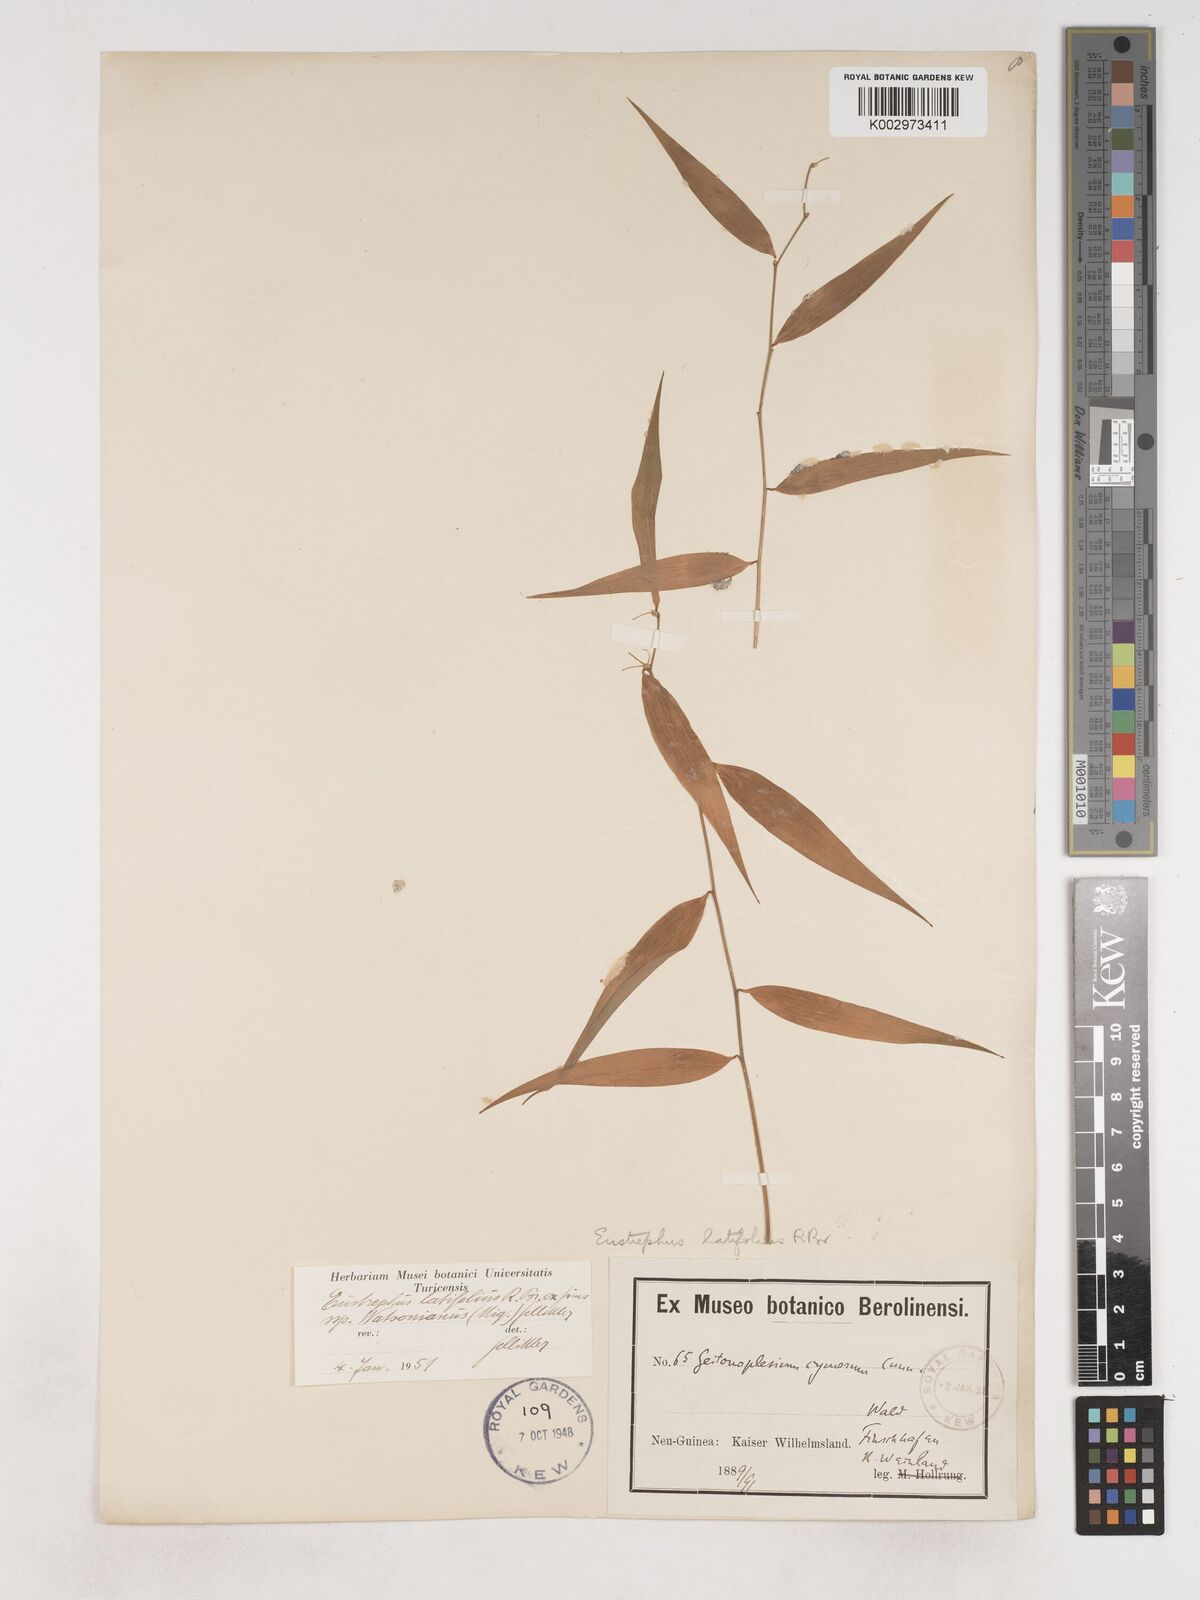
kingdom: Plantae
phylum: Tracheophyta
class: Liliopsida
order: Asparagales
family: Asparagaceae
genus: Eustrephus
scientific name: Eustrephus latifolius
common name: Orangevine
